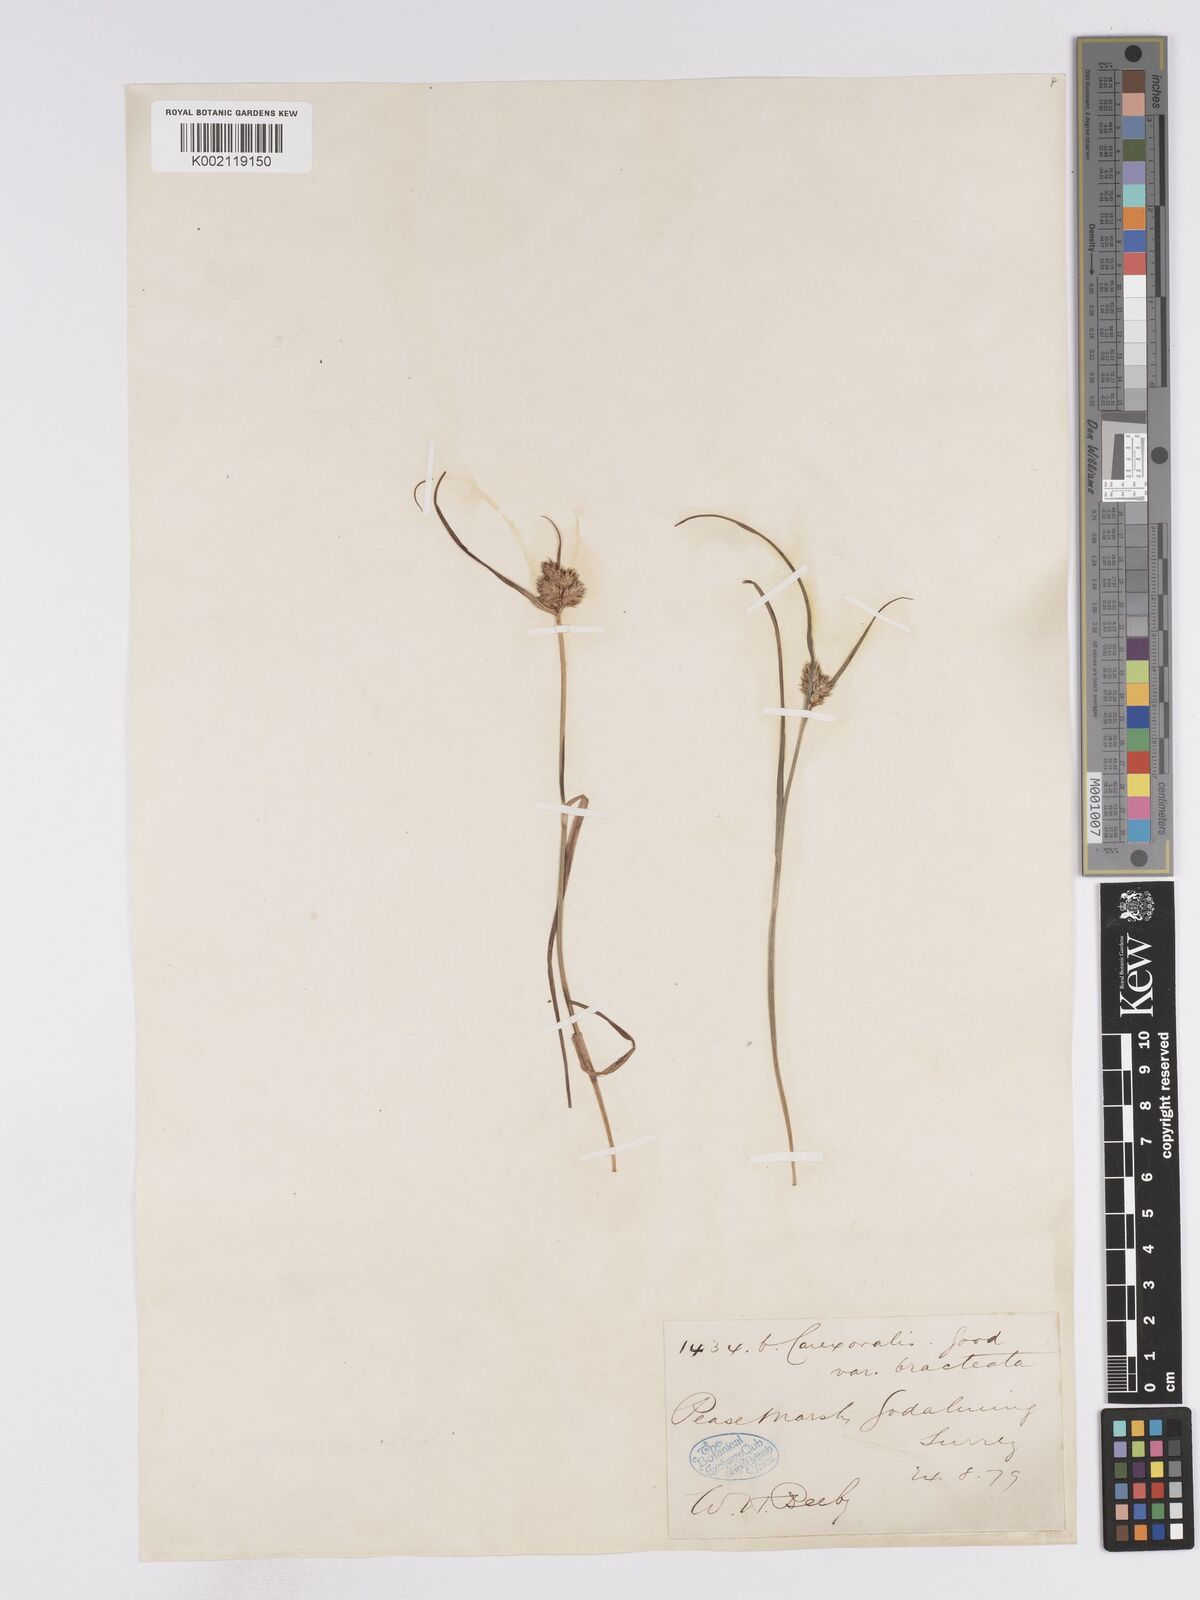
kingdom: Plantae
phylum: Tracheophyta
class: Liliopsida
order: Poales
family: Cyperaceae
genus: Carex
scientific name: Carex leporina
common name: Oval sedge
